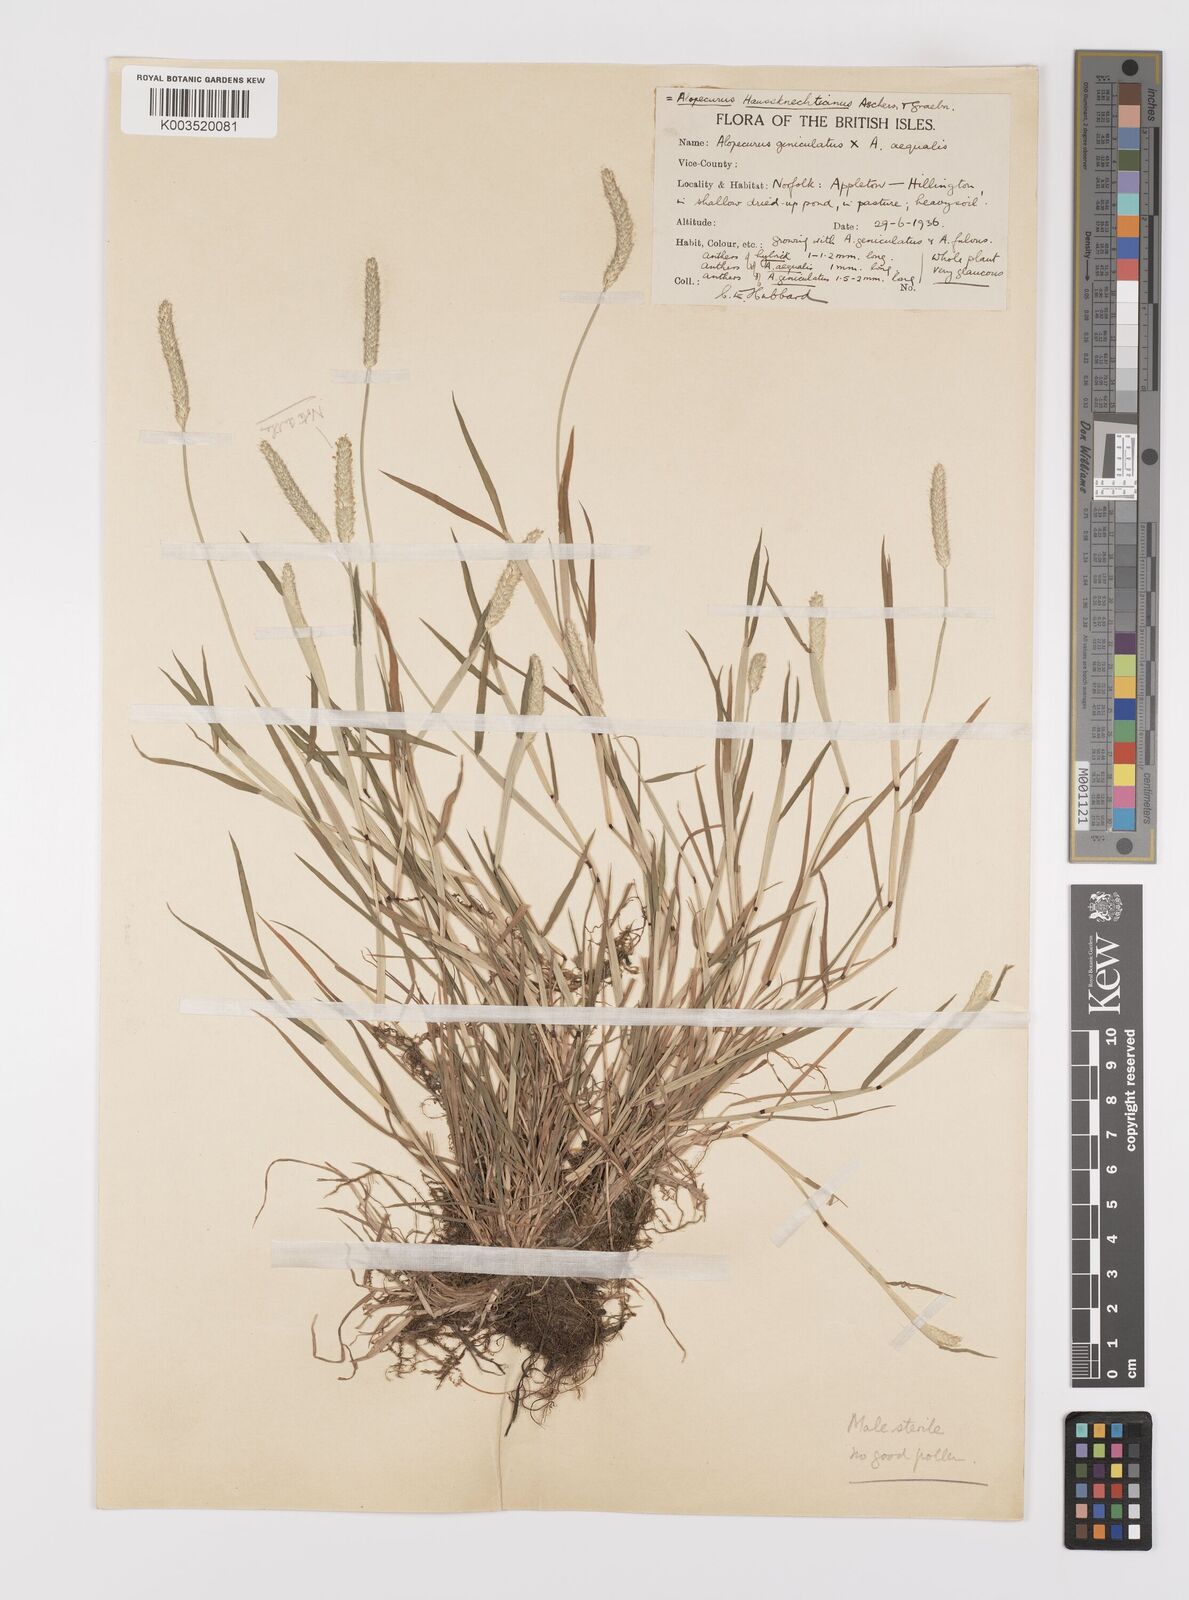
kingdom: Plantae
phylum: Tracheophyta
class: Liliopsida
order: Poales
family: Poaceae
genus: Alopecurus
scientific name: Alopecurus haussknechtianus
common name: Haussknecht's foxtail
